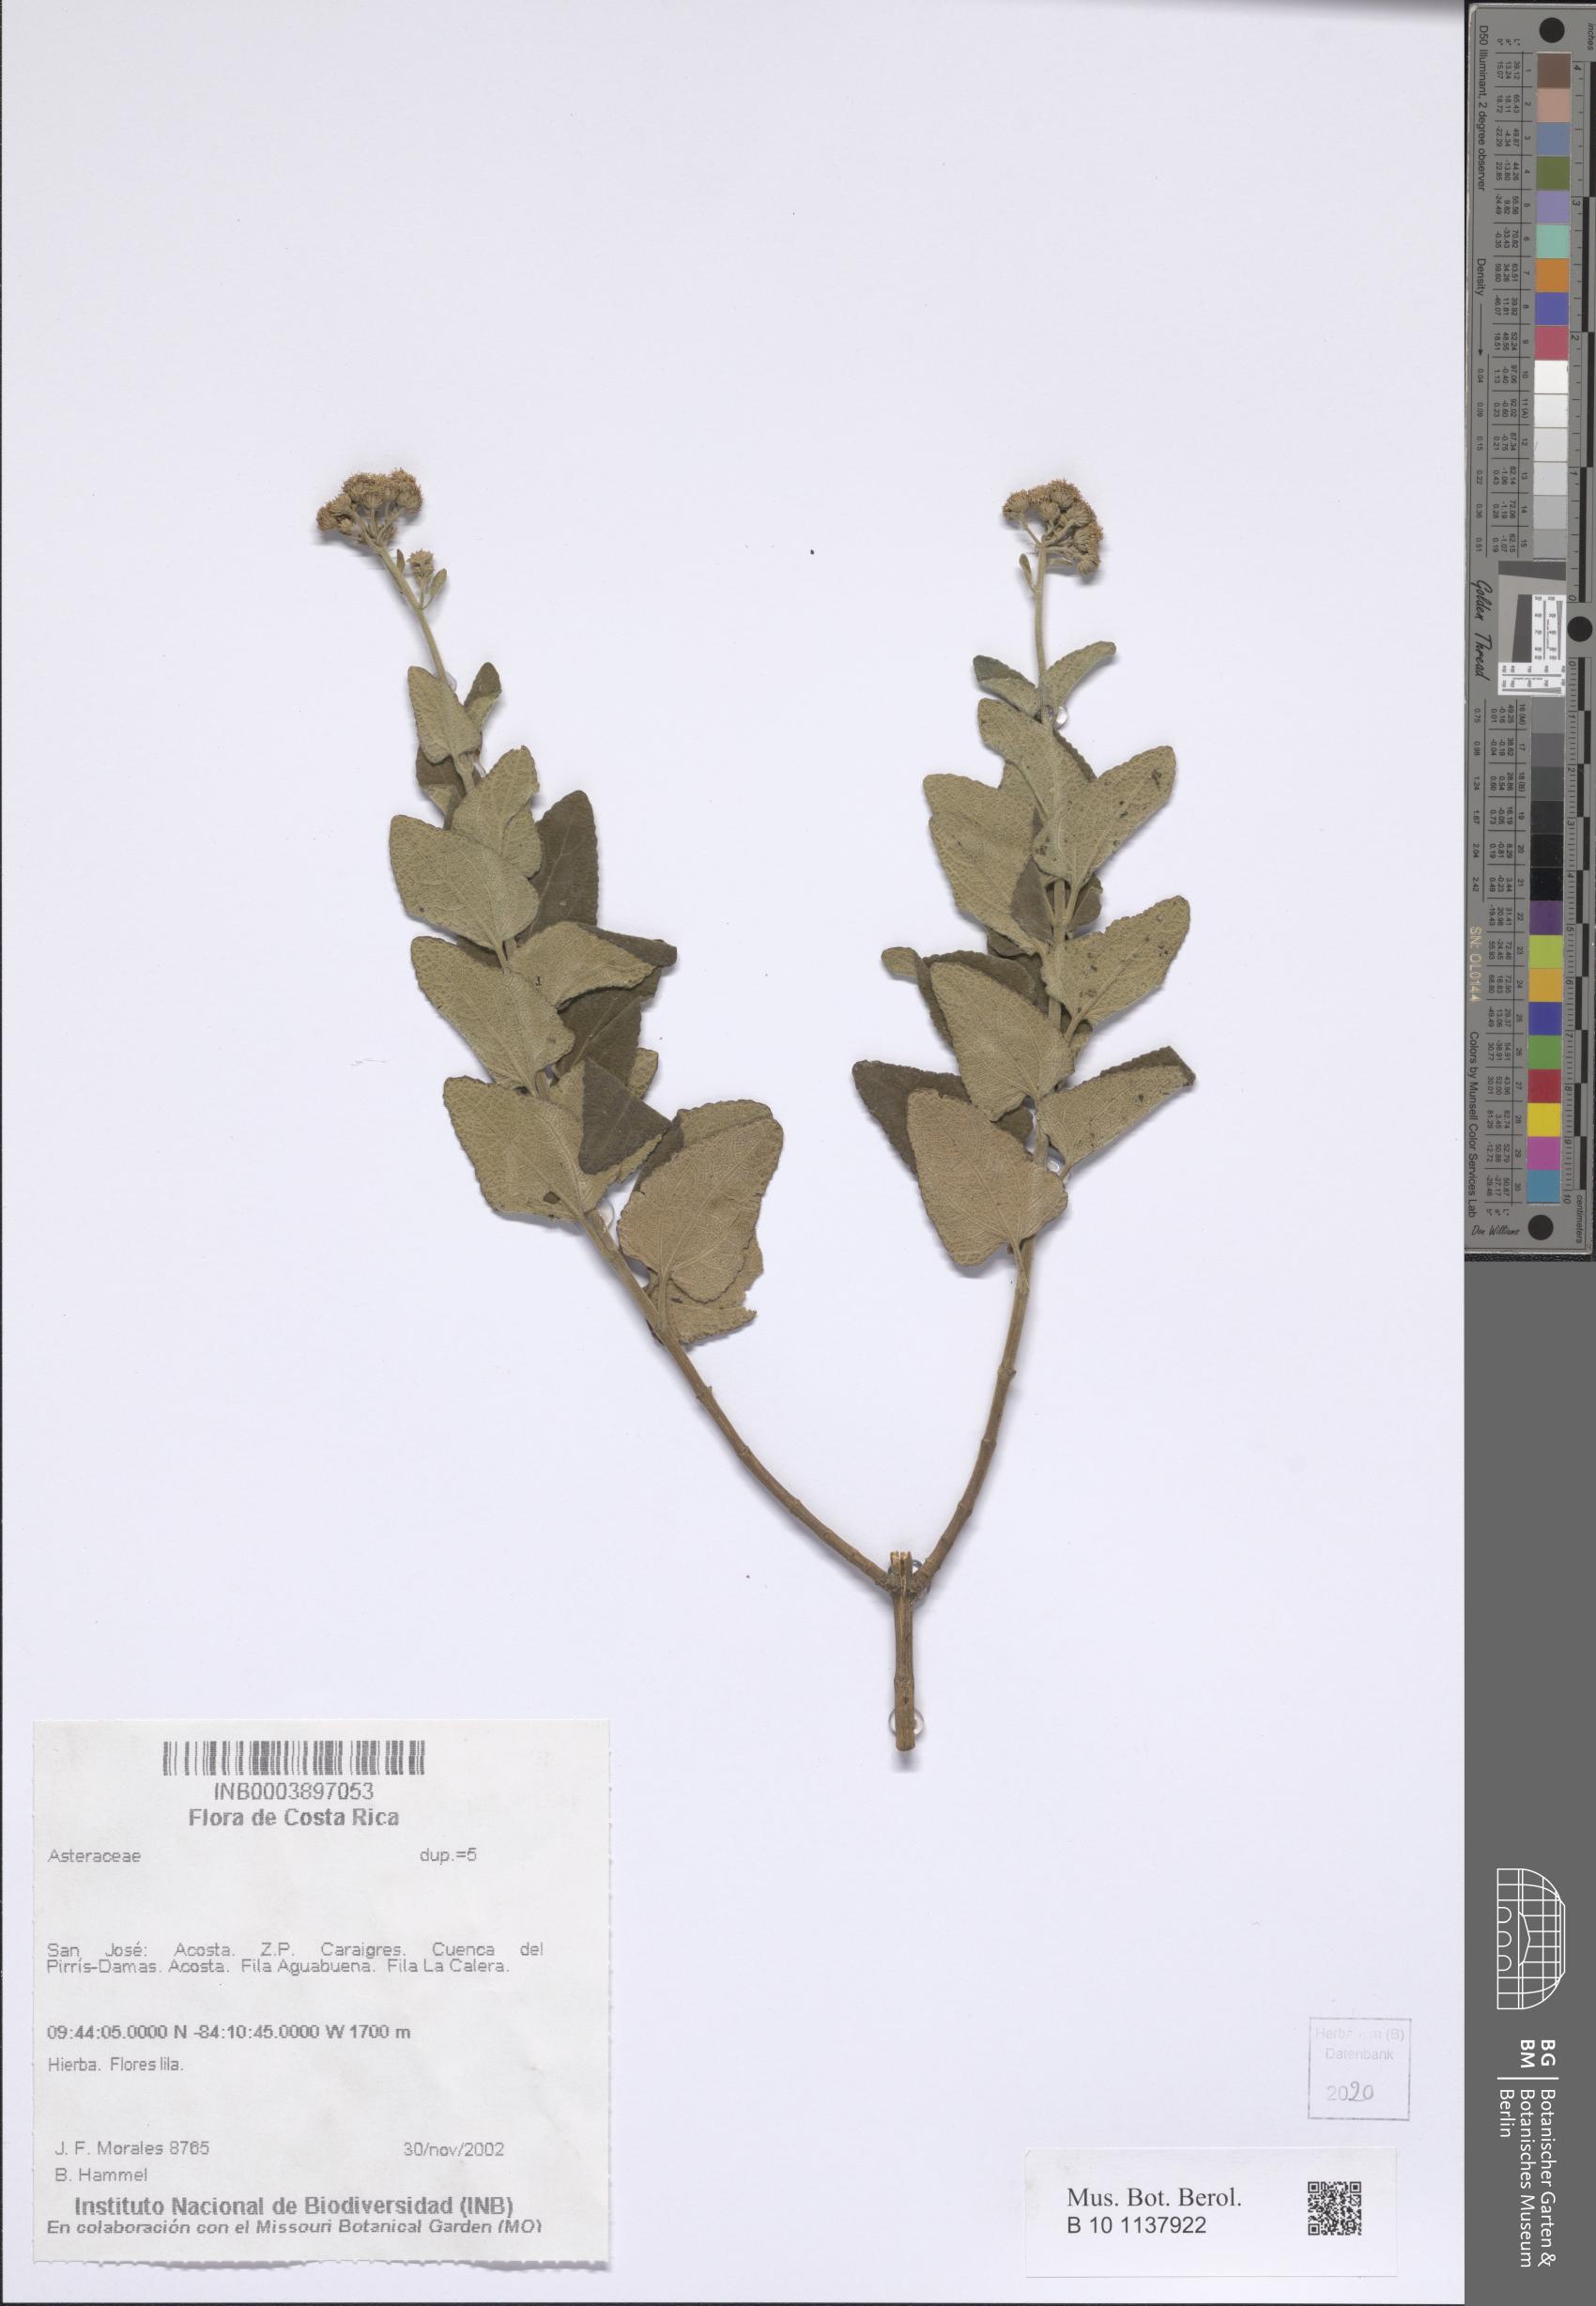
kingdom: Plantae
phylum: Tracheophyta
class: Magnoliopsida
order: Asterales
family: Asteraceae
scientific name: Asteraceae
